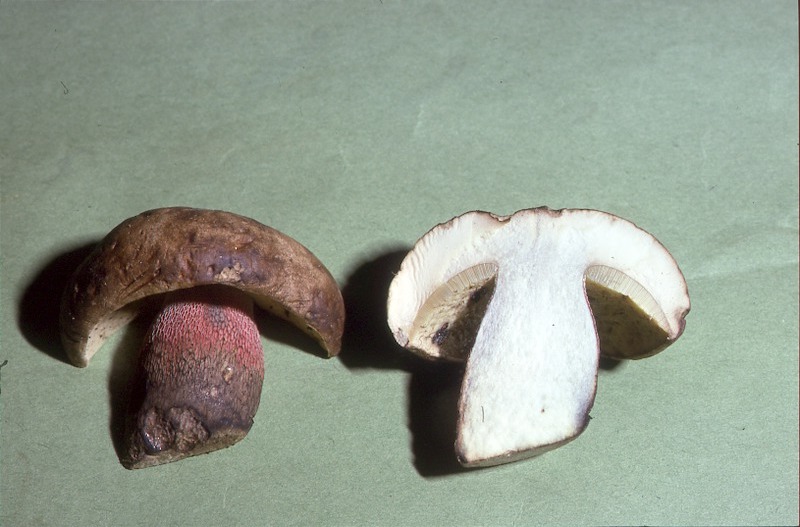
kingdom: Fungi
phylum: Basidiomycota
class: Agaricomycetes
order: Boletales
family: Boletaceae
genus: Caloboletus
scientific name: Caloboletus calopus
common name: Bitter beech bolete
